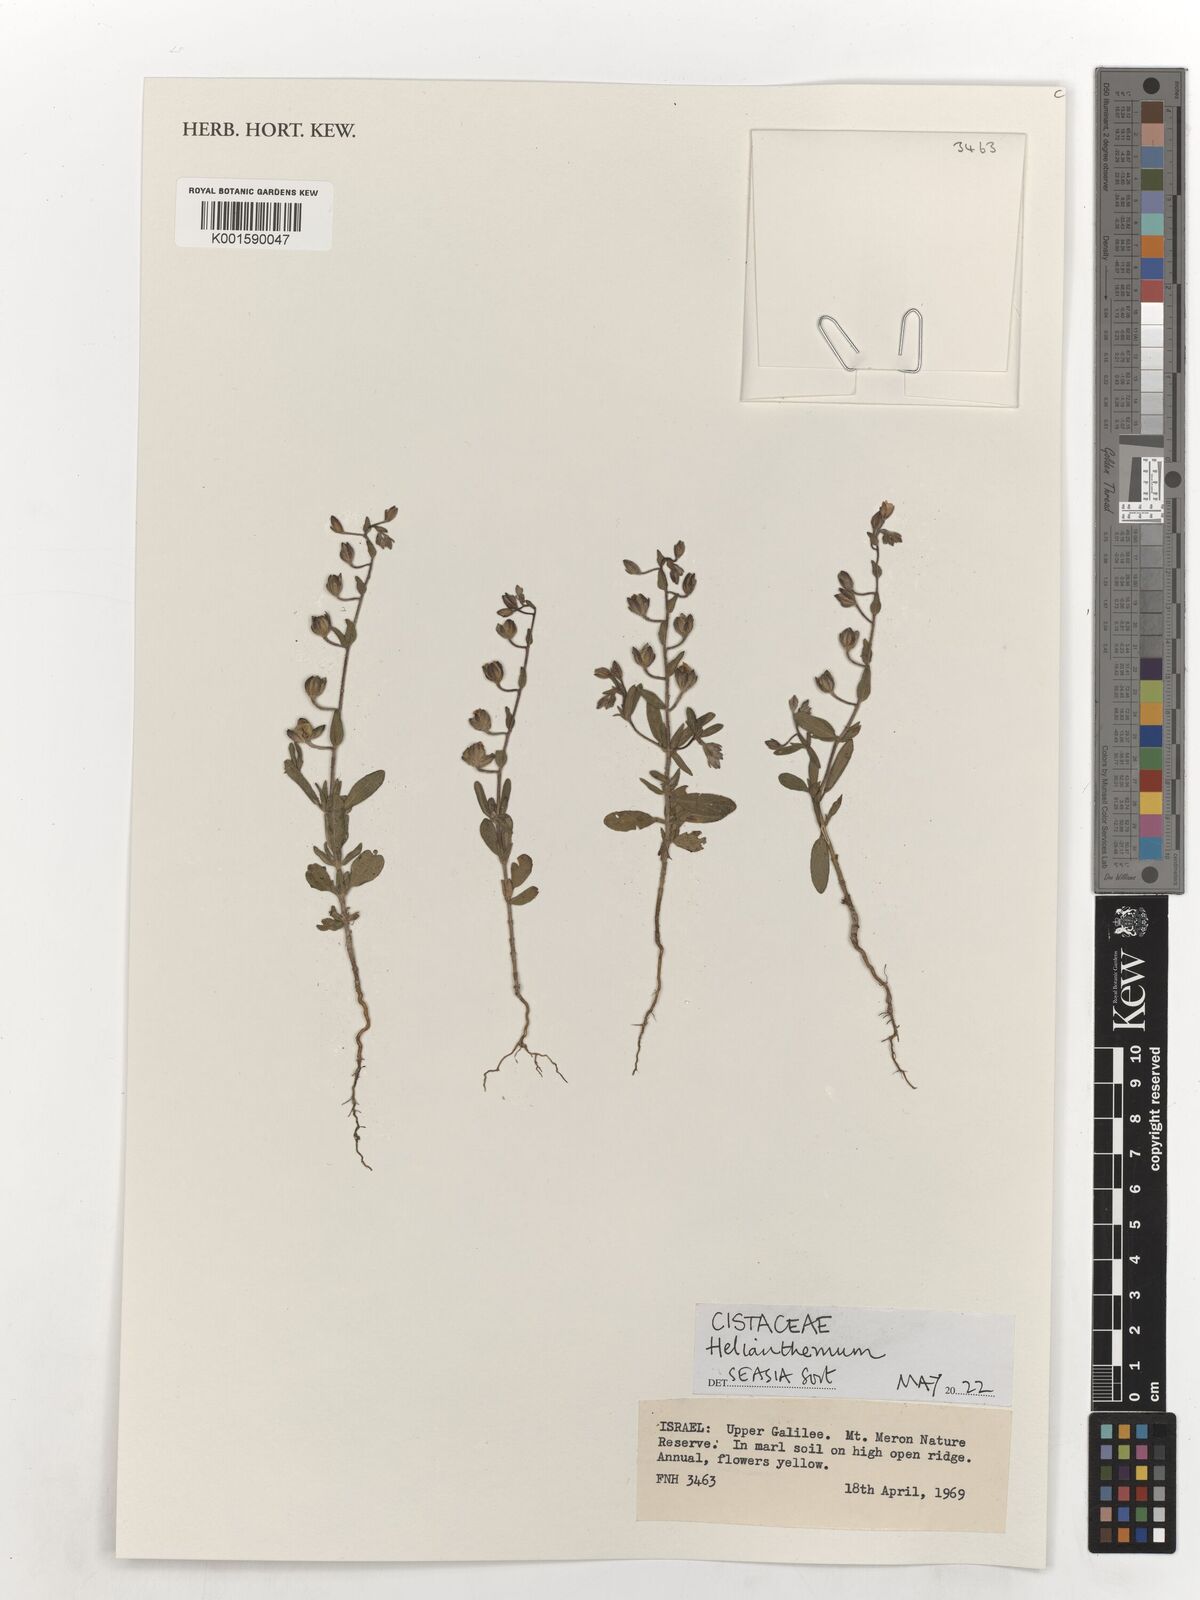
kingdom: Plantae
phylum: Tracheophyta
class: Magnoliopsida
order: Malvales
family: Cistaceae
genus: Helianthemum
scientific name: Helianthemum
